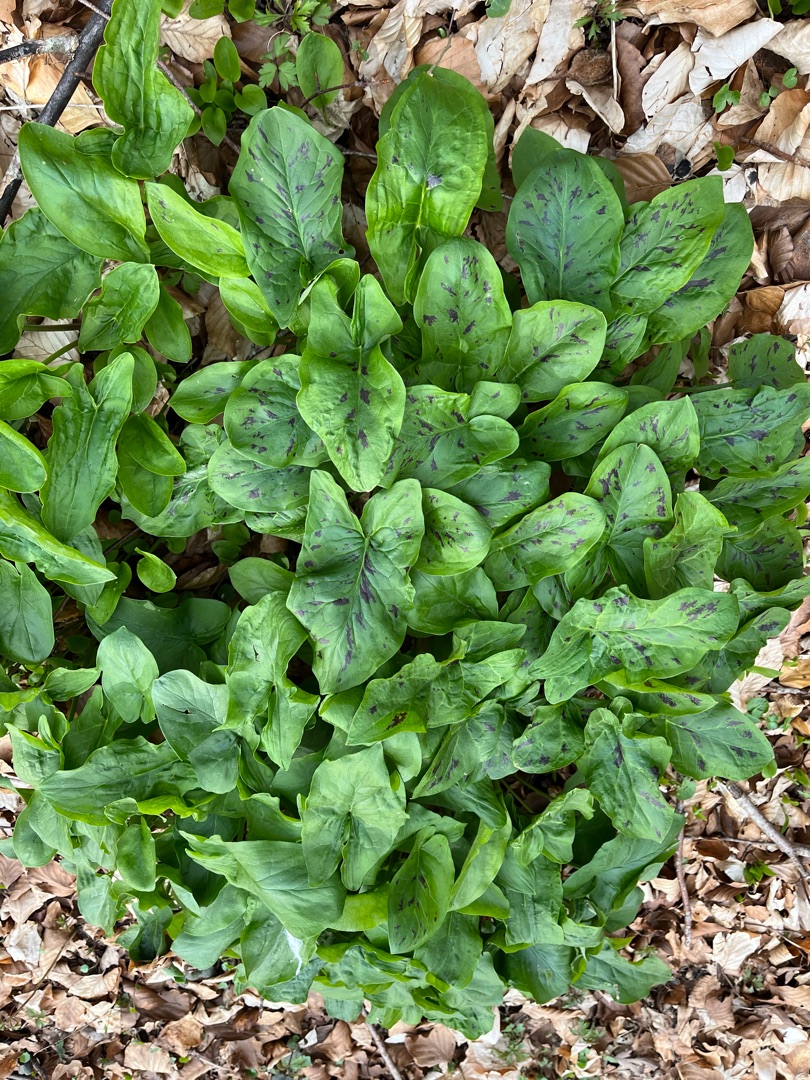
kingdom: Plantae
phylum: Tracheophyta
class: Liliopsida
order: Alismatales
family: Araceae
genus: Arum
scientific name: Arum maculatum
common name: Plettet arum
